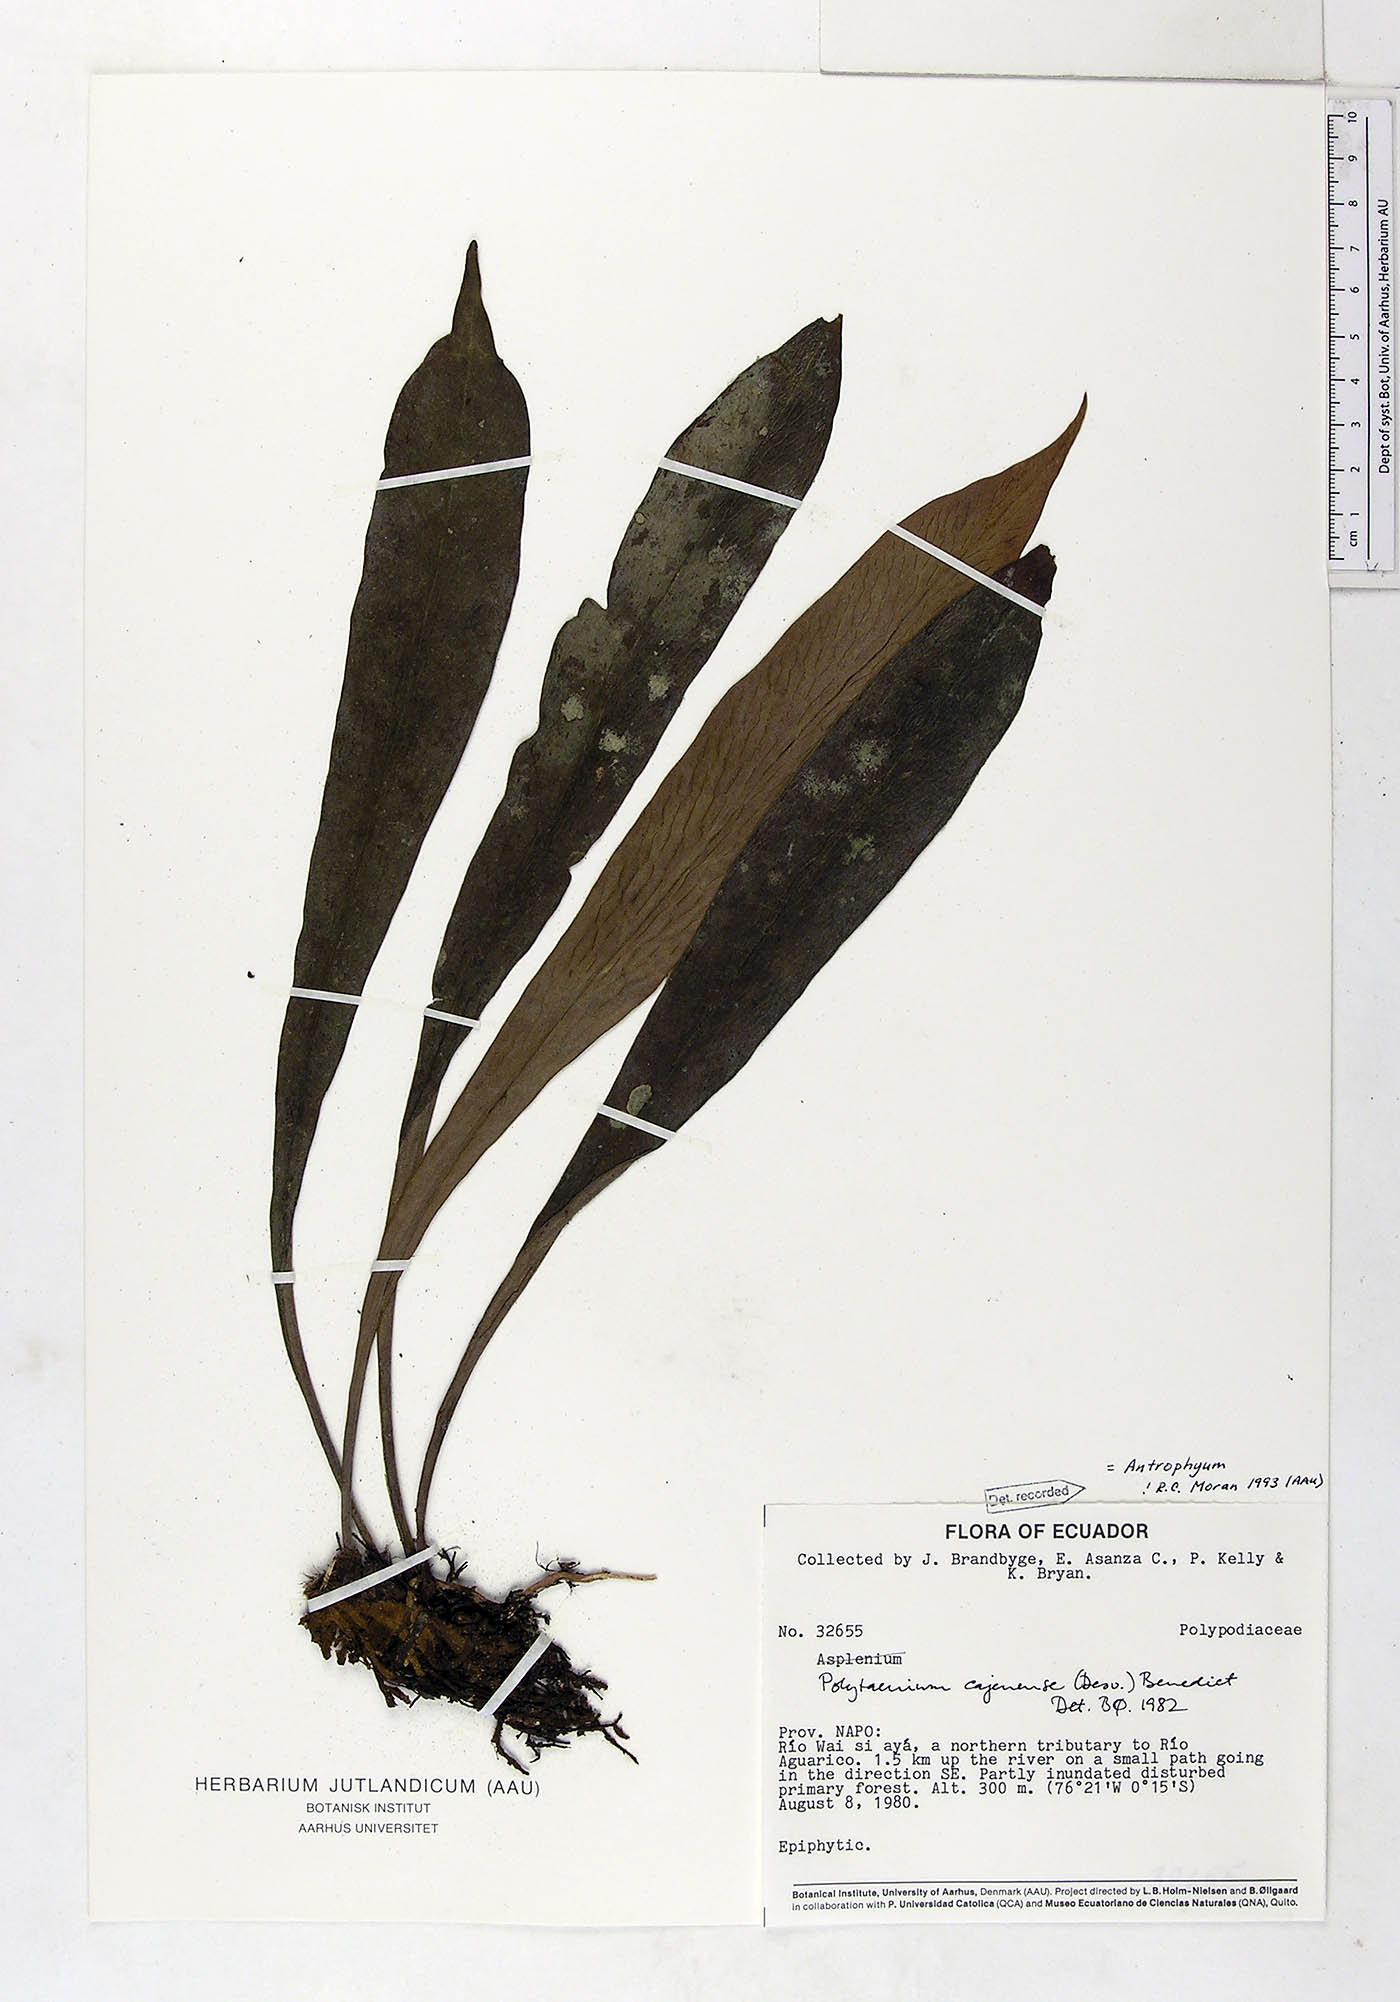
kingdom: Plantae
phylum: Tracheophyta
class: Polypodiopsida
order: Polypodiales
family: Pteridaceae
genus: Polytaenium
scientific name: Polytaenium cajenense
